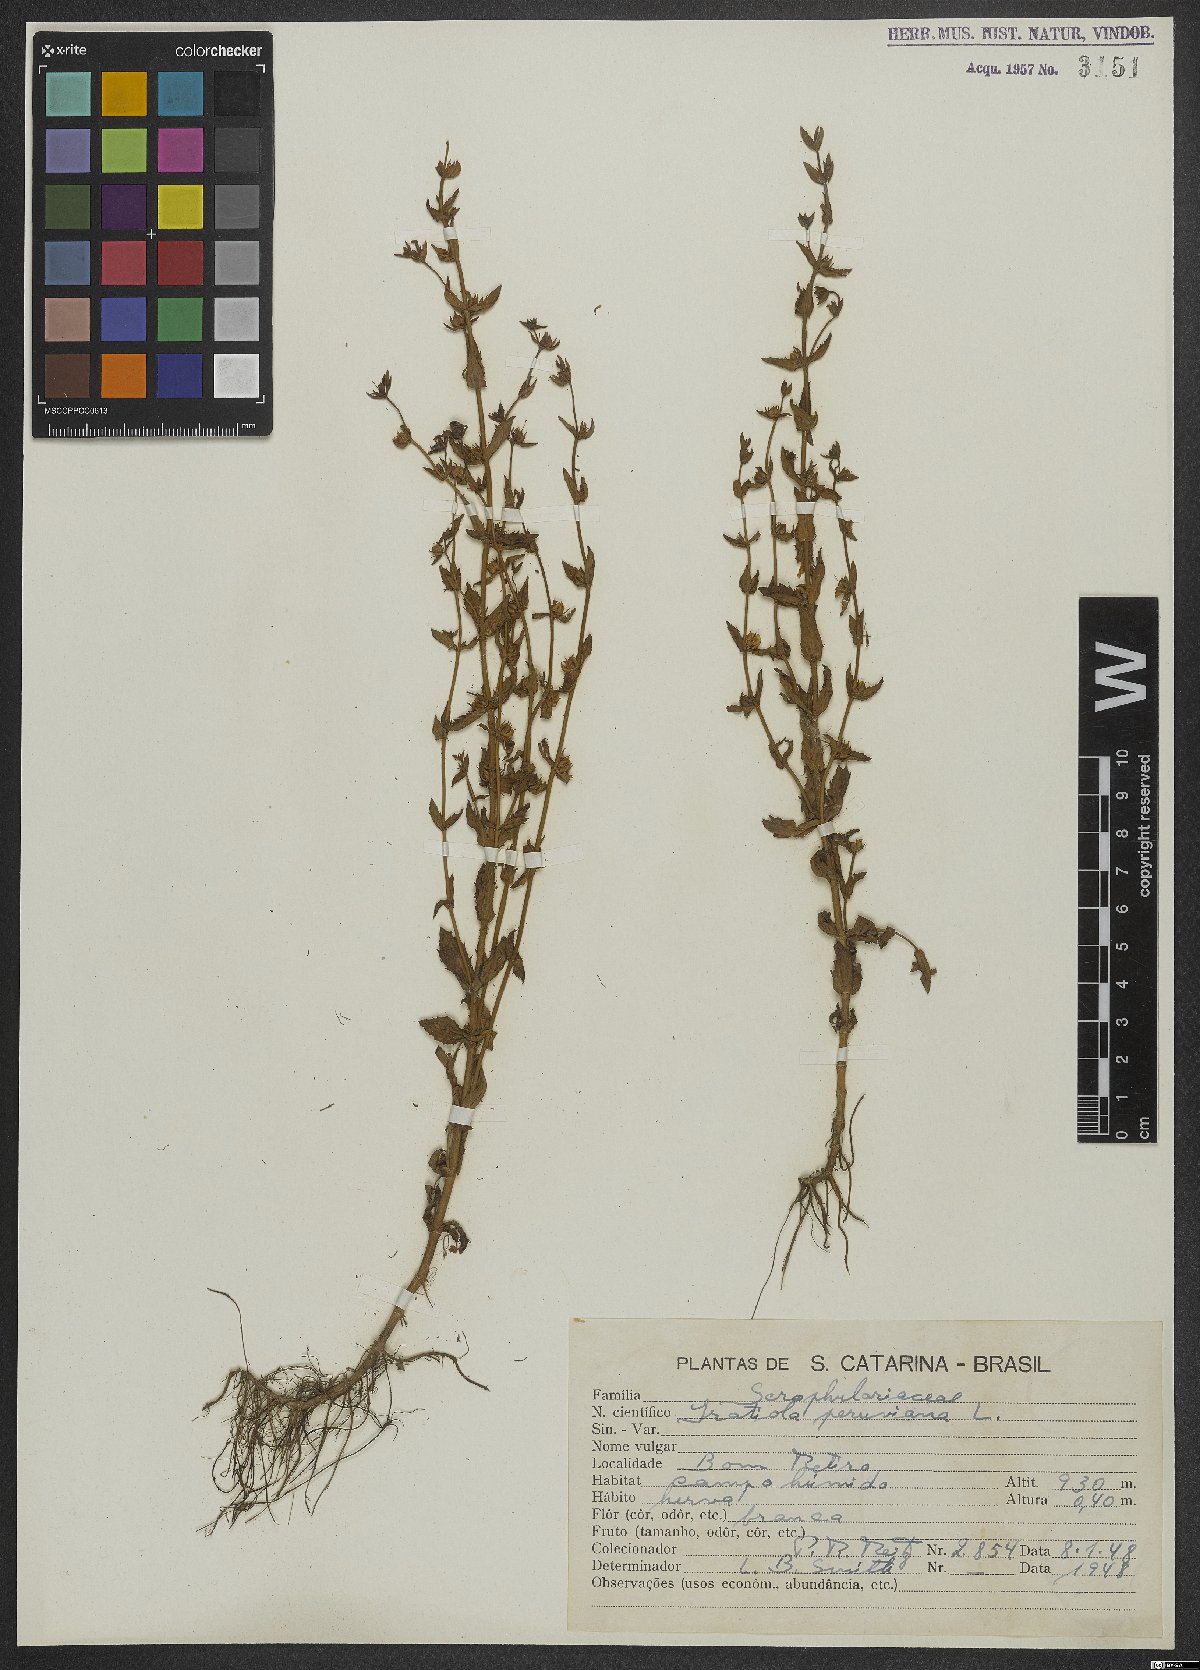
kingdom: Plantae
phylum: Tracheophyta
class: Magnoliopsida
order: Lamiales
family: Plantaginaceae
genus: Gratiola
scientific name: Gratiola peruviana
